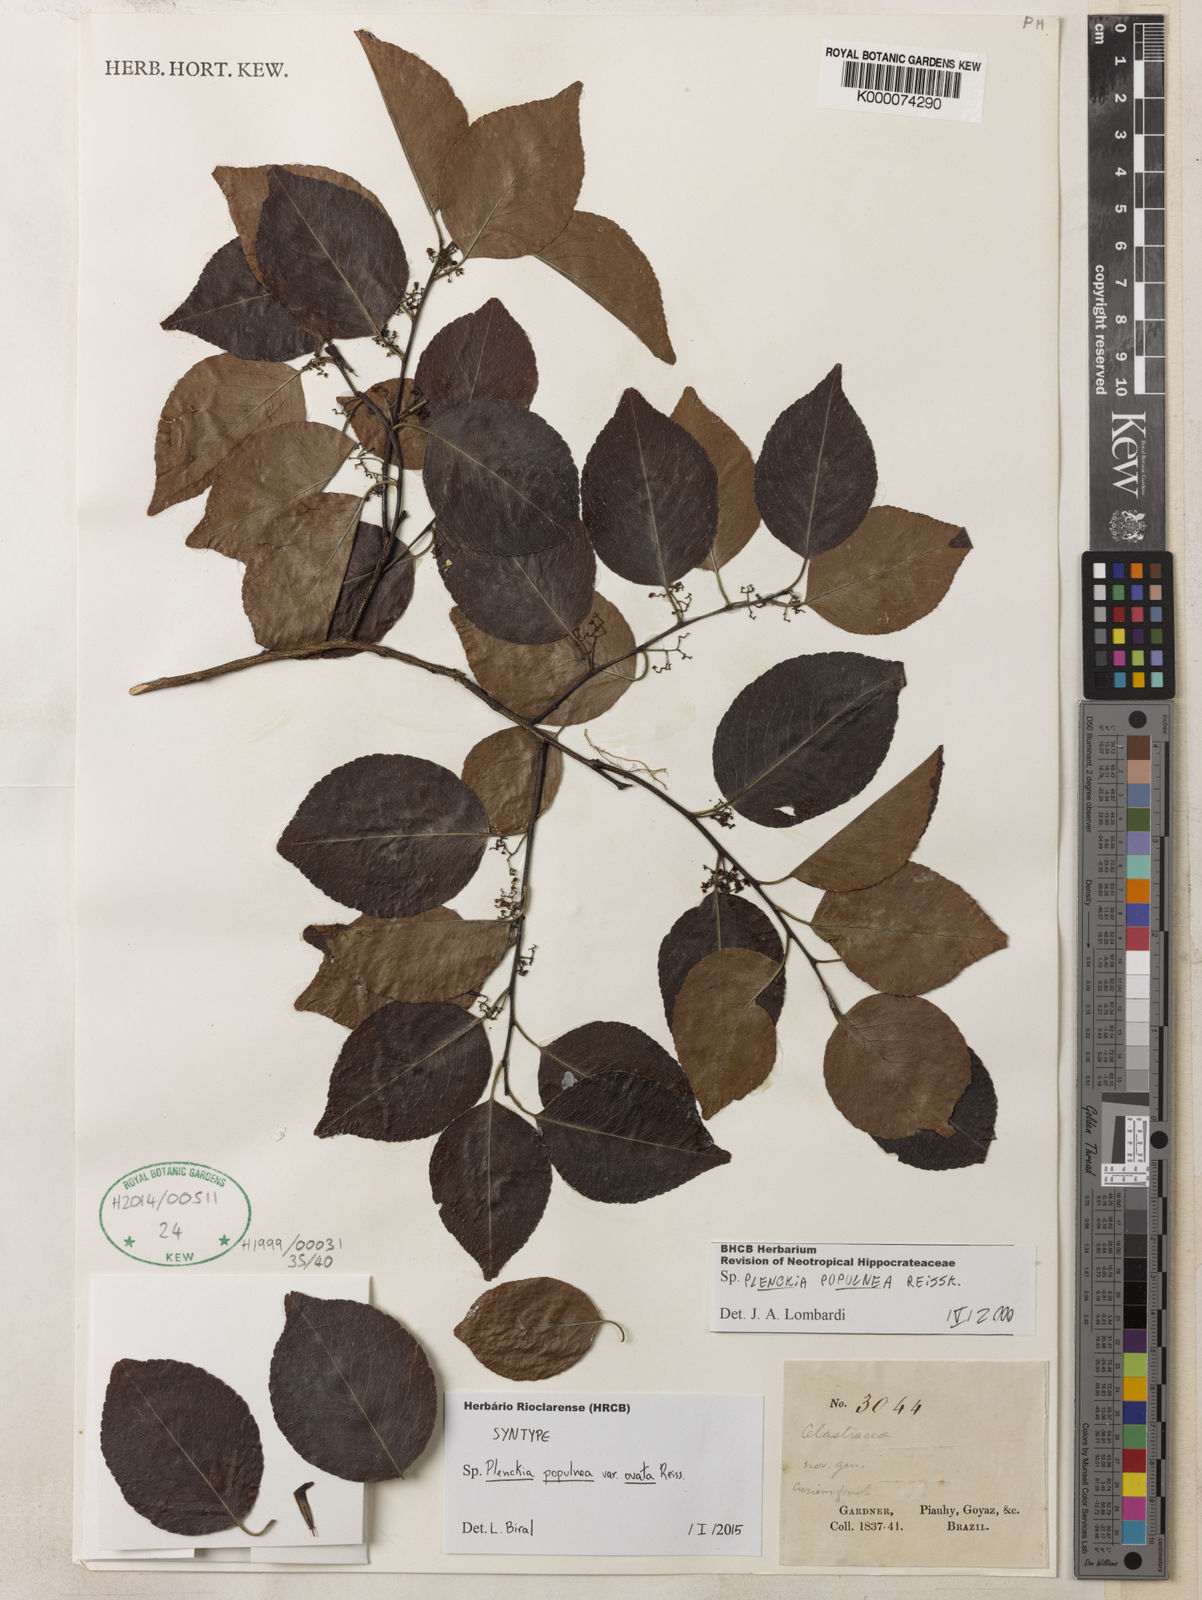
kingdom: Plantae
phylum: Tracheophyta
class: Magnoliopsida
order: Celastrales
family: Celastraceae
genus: Plenckia
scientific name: Plenckia populnea
